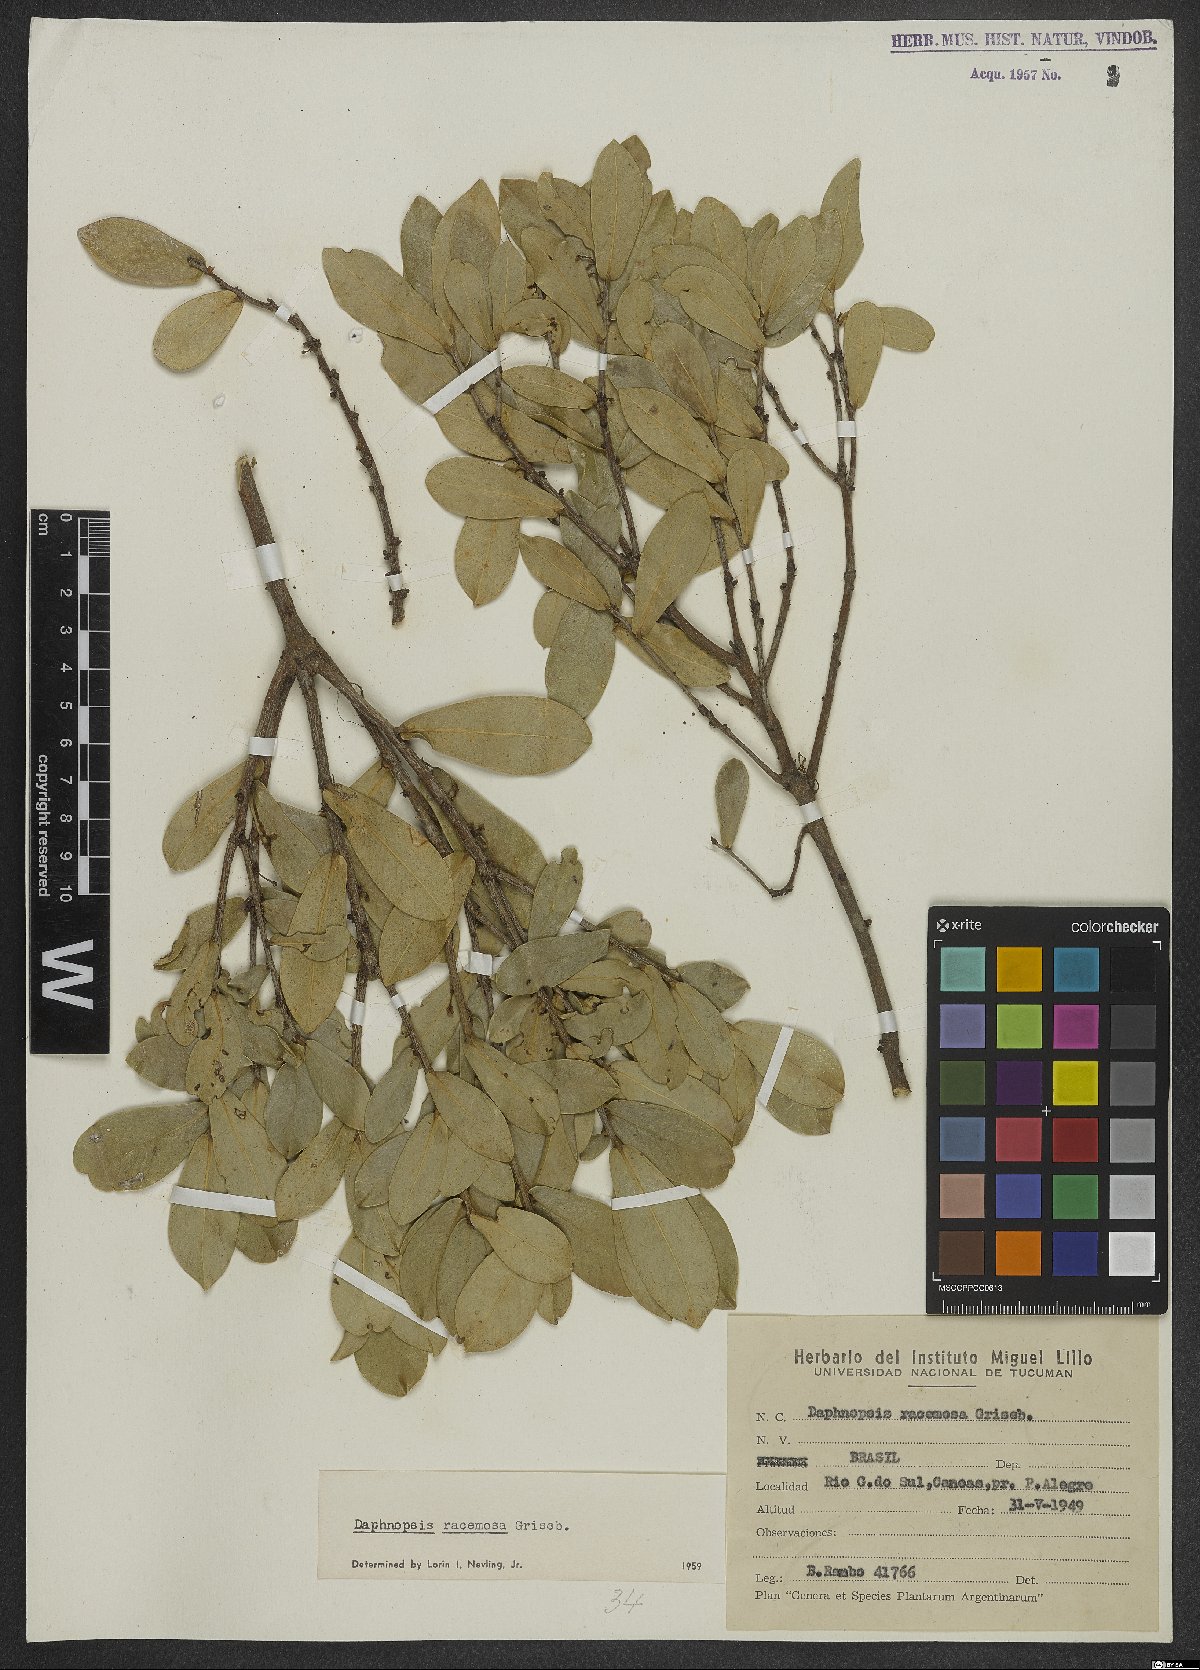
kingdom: Plantae
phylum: Tracheophyta
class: Magnoliopsida
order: Malvales
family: Thymelaeaceae
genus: Daphnopsis
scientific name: Daphnopsis racemosa
